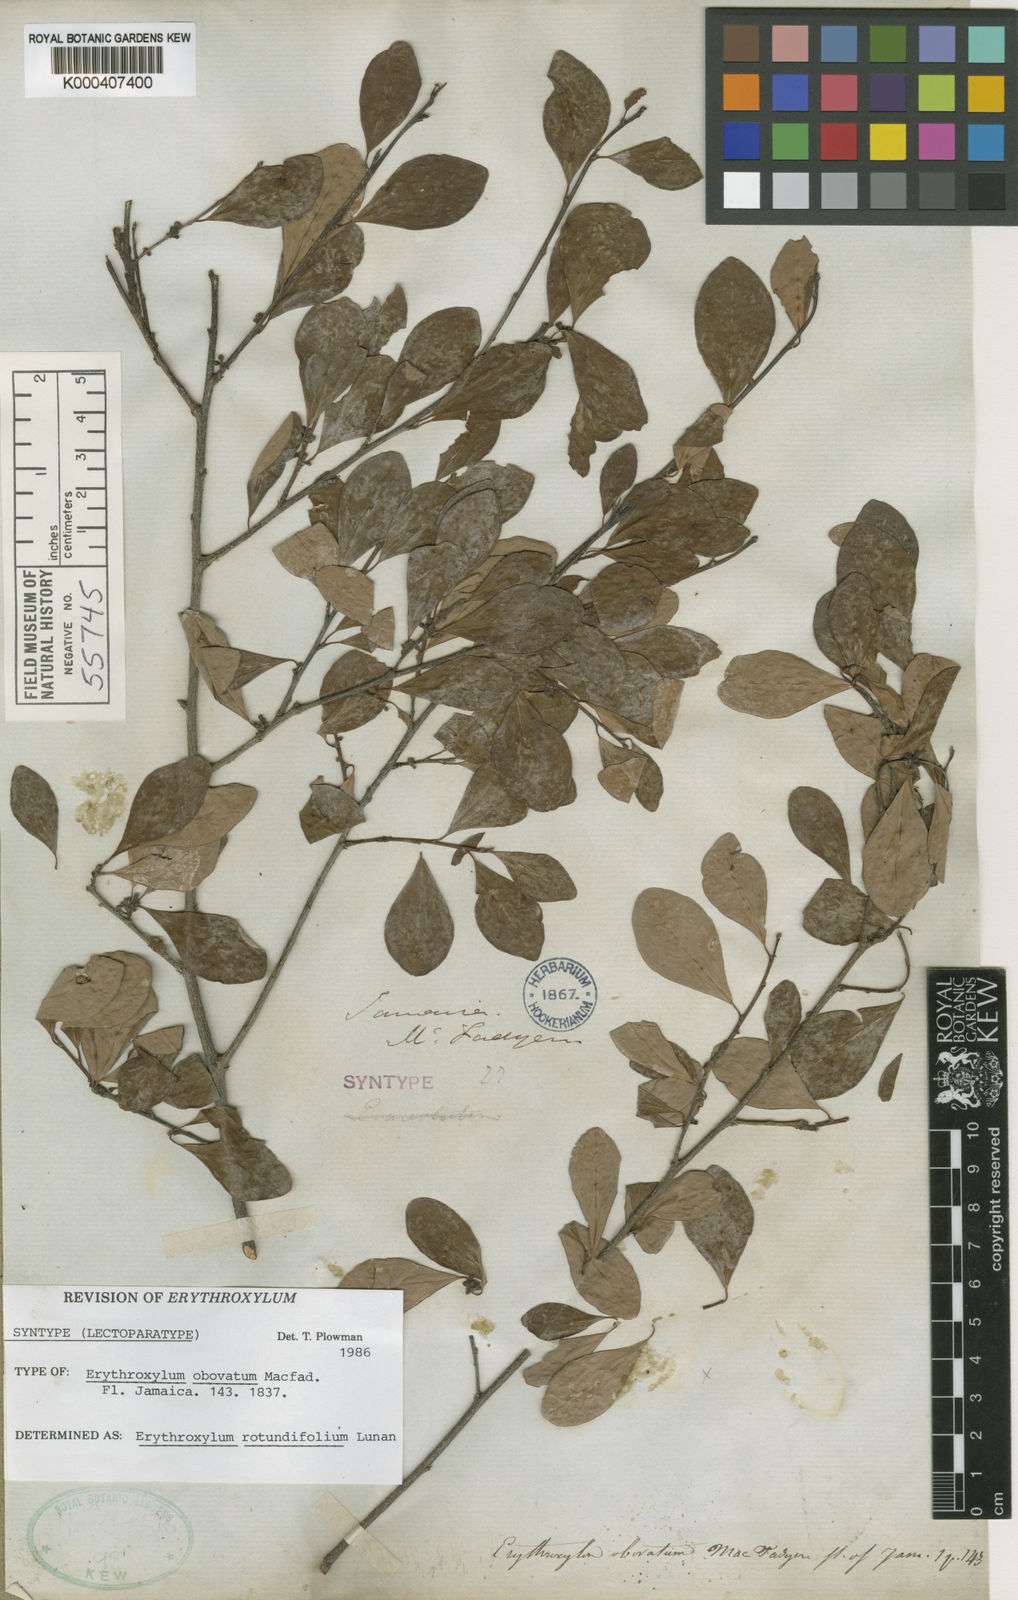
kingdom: Plantae
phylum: Tracheophyta
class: Magnoliopsida
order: Malpighiales
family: Erythroxylaceae
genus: Erythroxylum
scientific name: Erythroxylum rotundifolium
